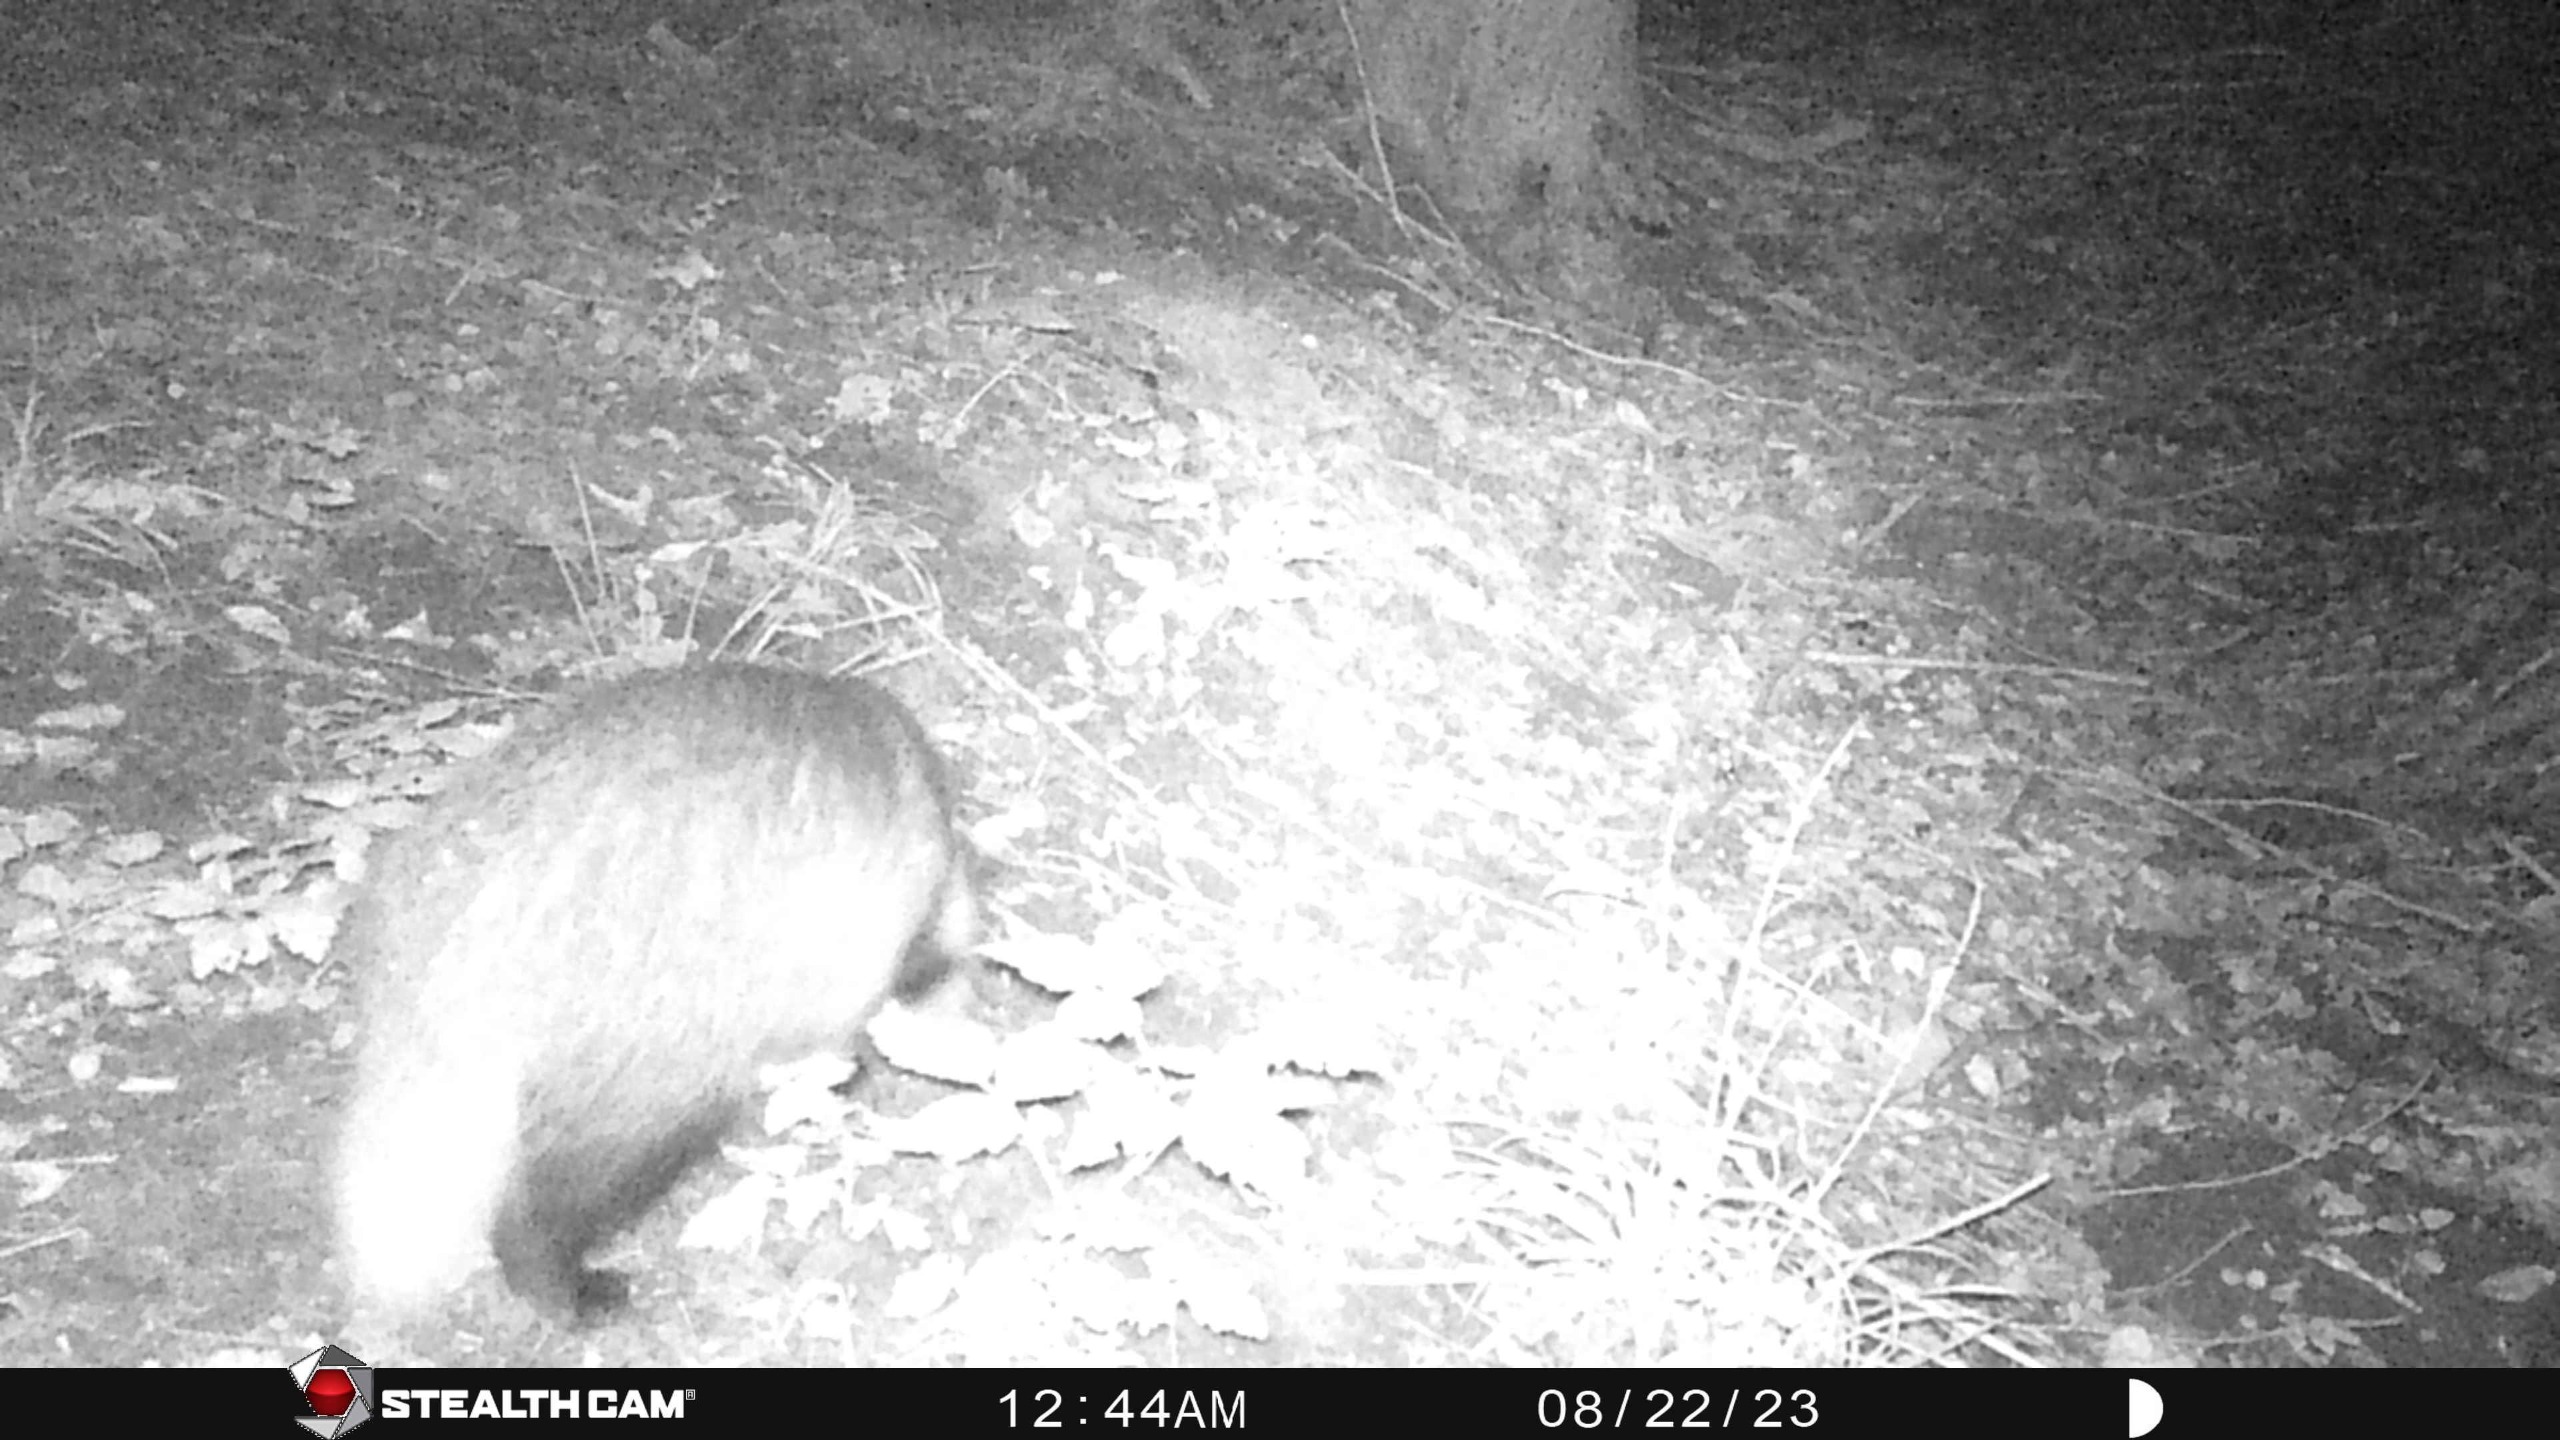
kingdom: Animalia
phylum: Chordata
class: Mammalia
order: Carnivora
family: Mustelidae
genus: Meles
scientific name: Meles meles
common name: Grævling
